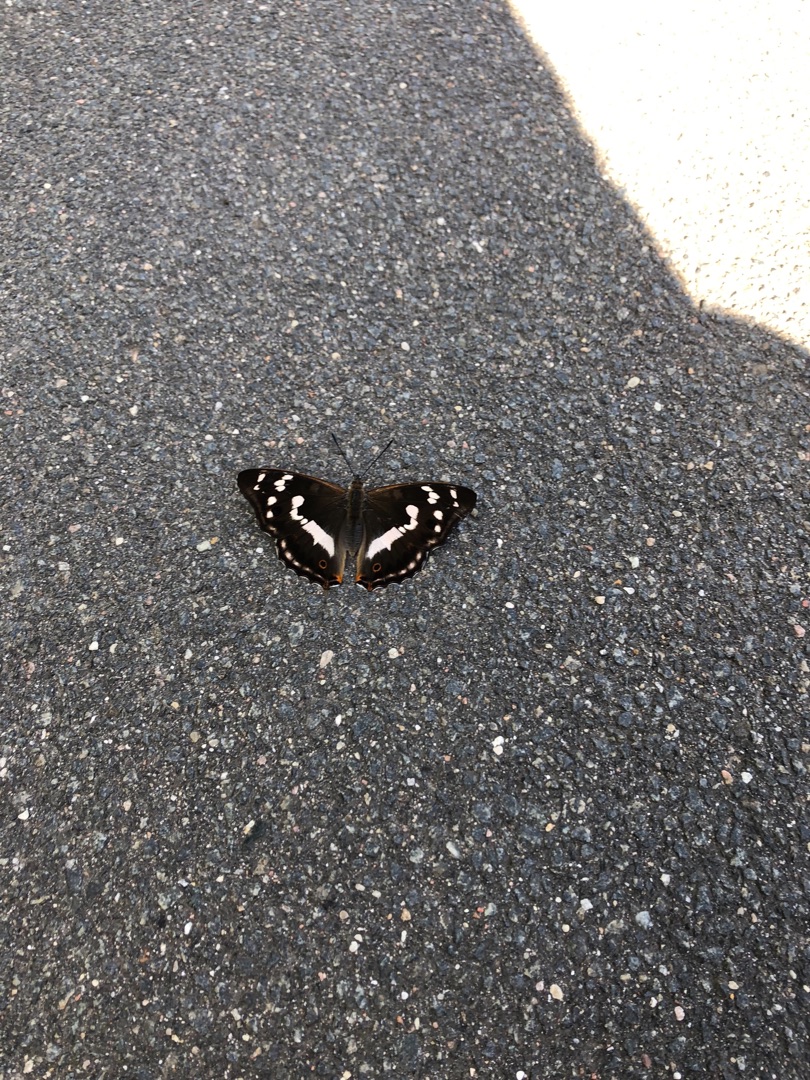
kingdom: Animalia
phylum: Arthropoda
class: Insecta
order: Lepidoptera
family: Nymphalidae
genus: Apatura
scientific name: Apatura iris
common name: Iris
